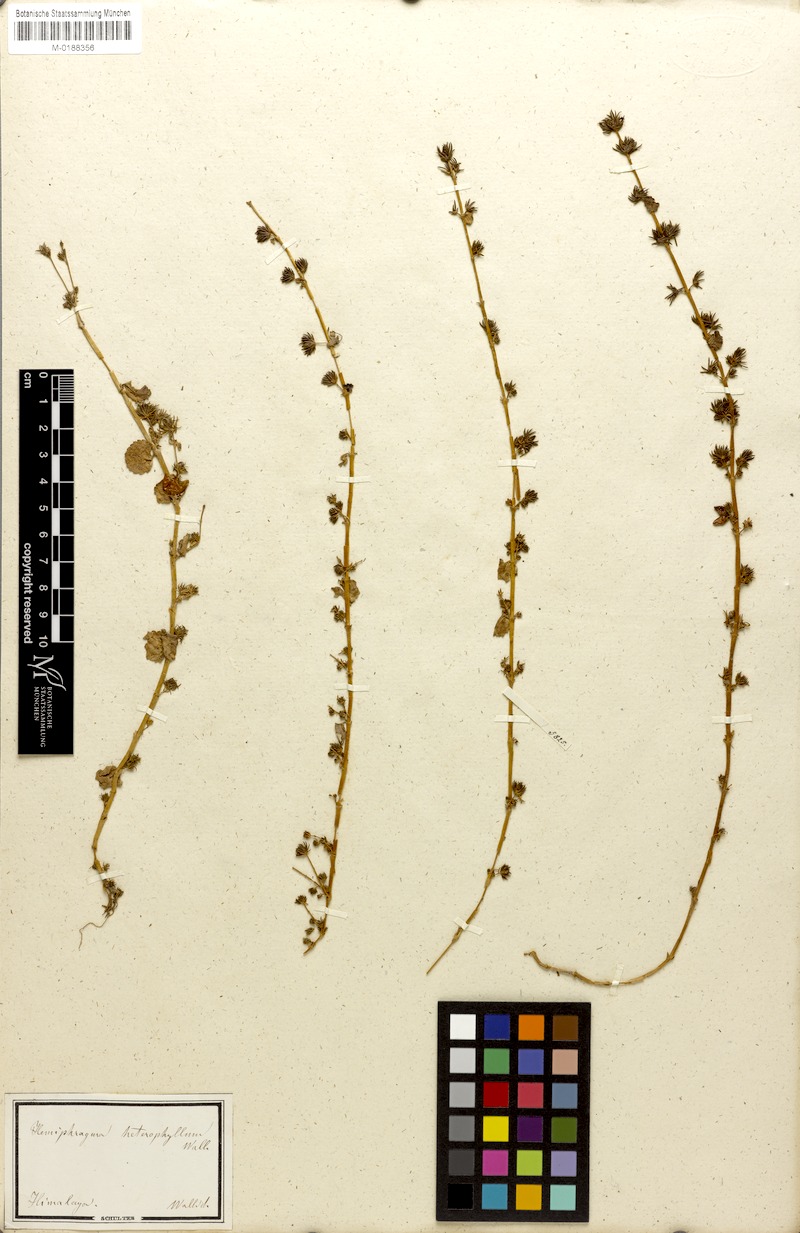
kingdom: Plantae
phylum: Tracheophyta
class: Magnoliopsida
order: Lamiales
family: Plantaginaceae
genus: Hemiphragma
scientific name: Hemiphragma heterophyllum
